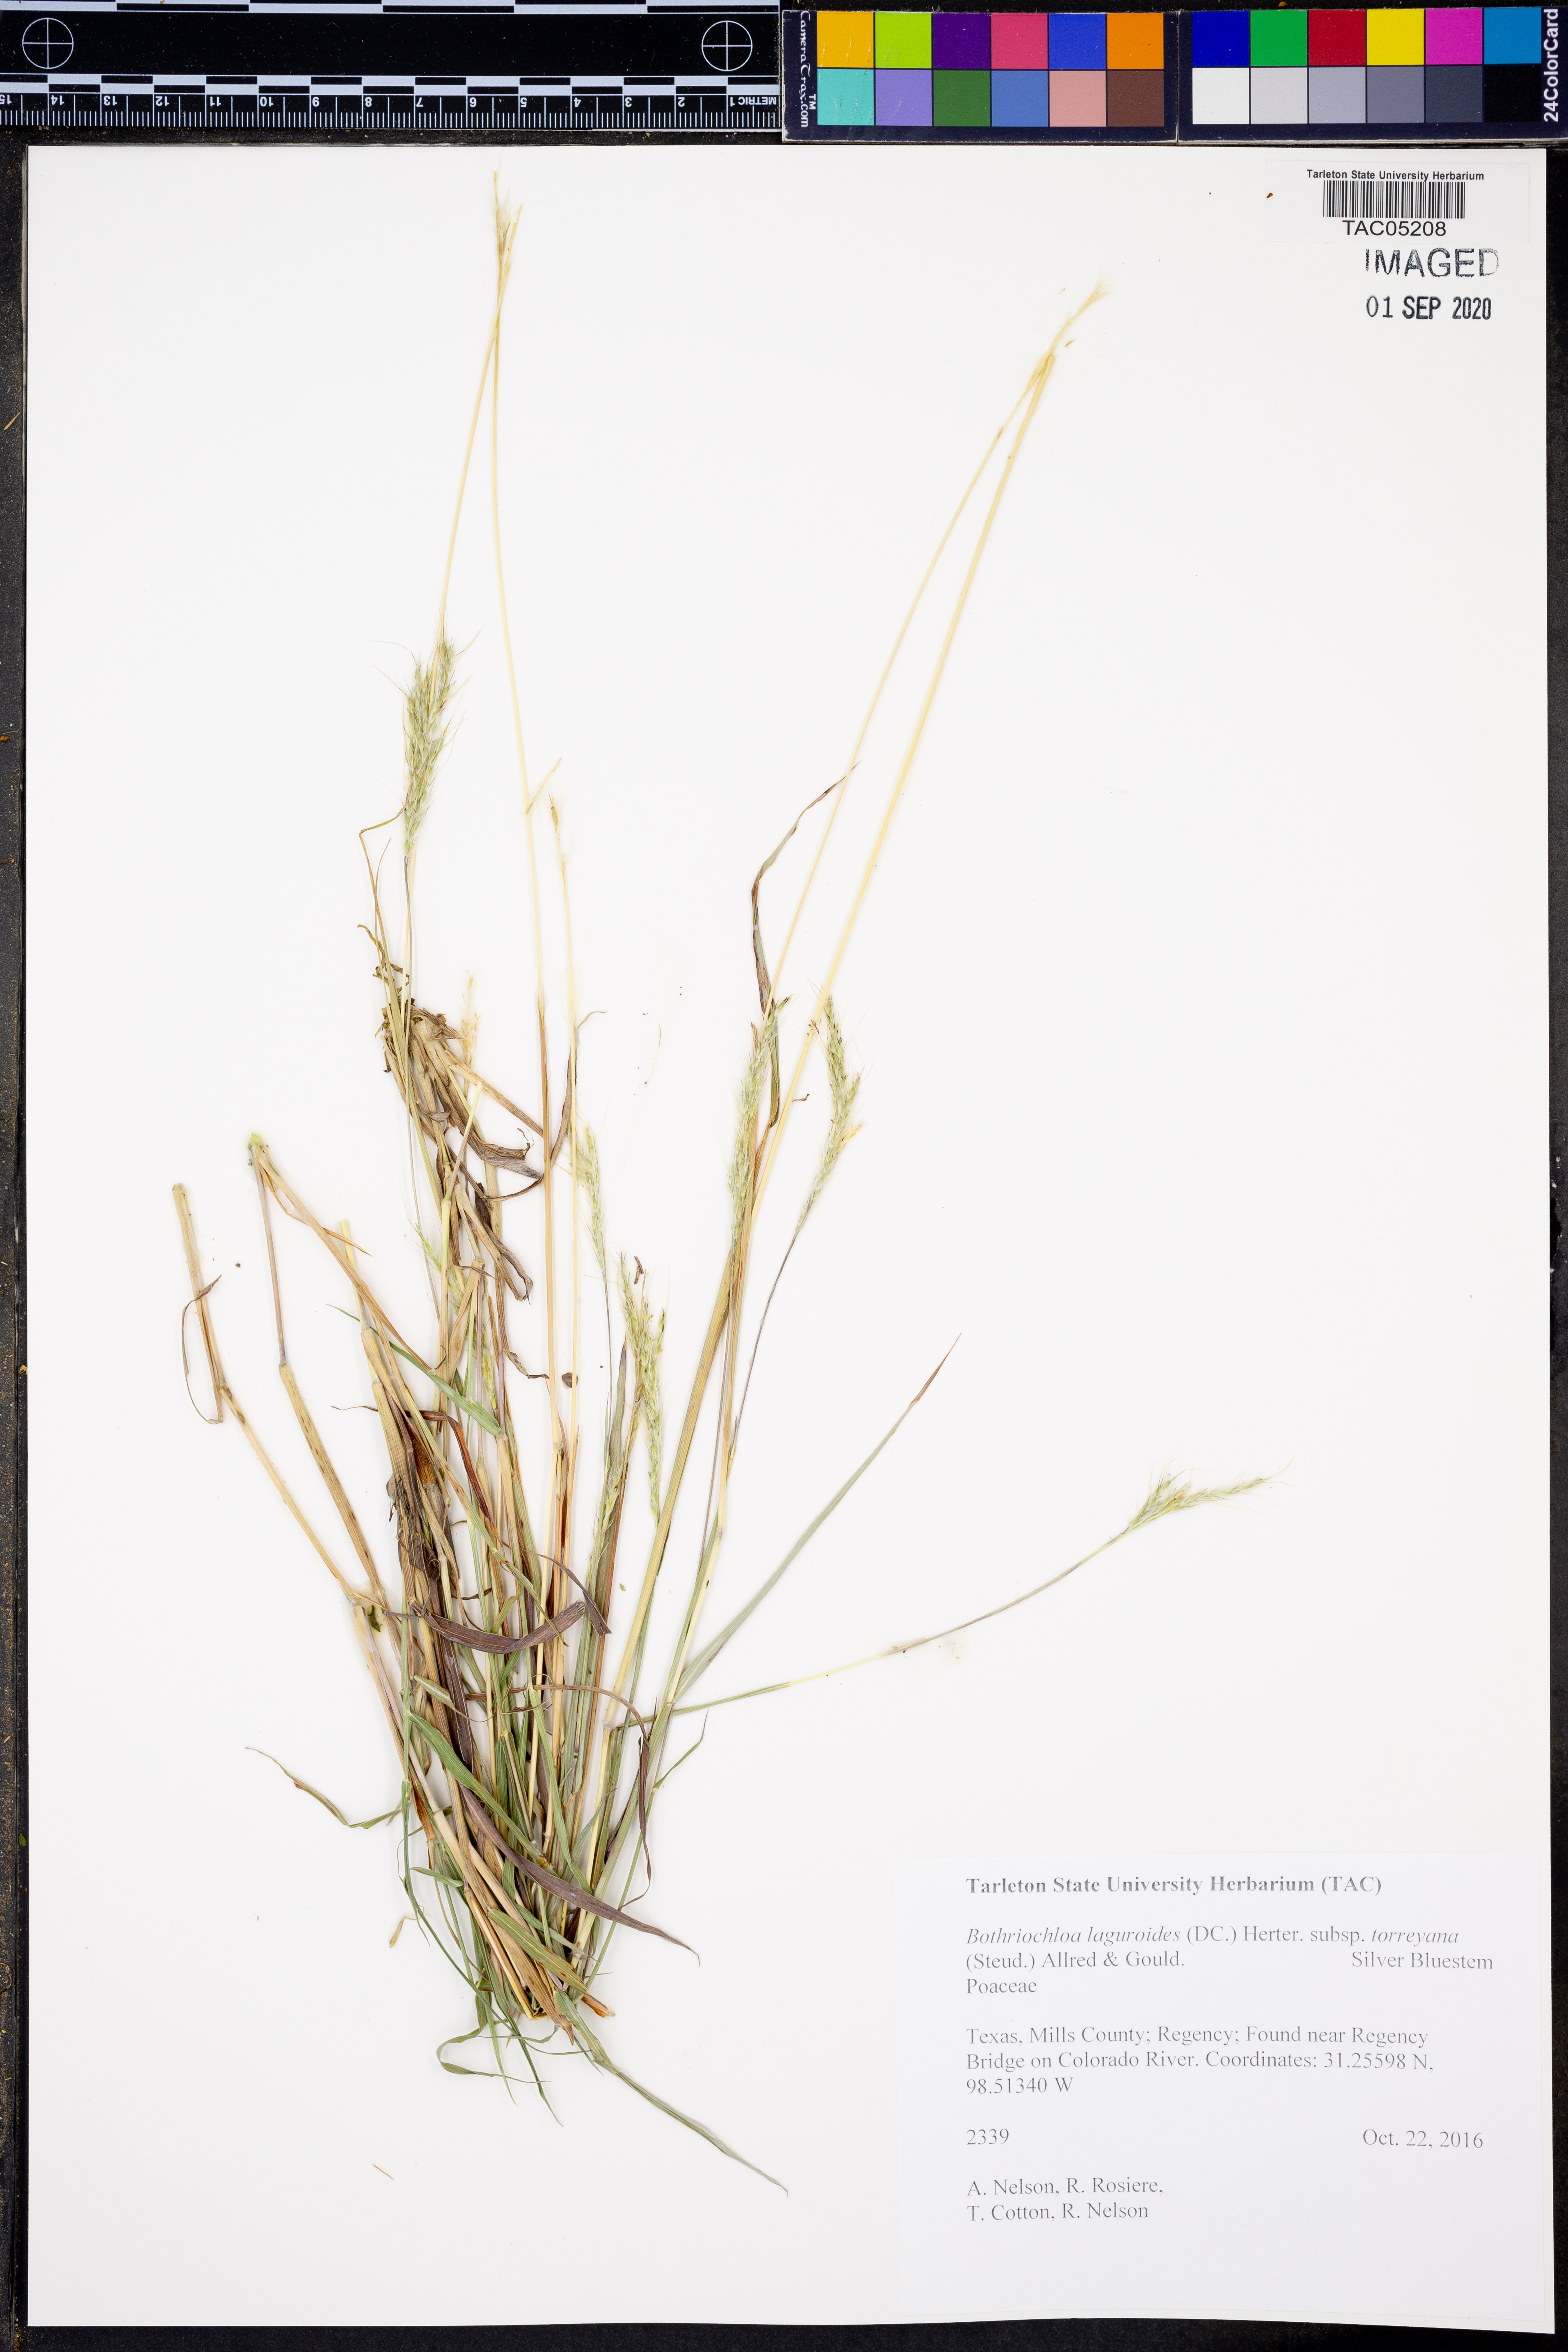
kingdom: Plantae
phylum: Tracheophyta
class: Liliopsida
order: Poales
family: Poaceae
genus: Bothriochloa
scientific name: Bothriochloa torreyana
